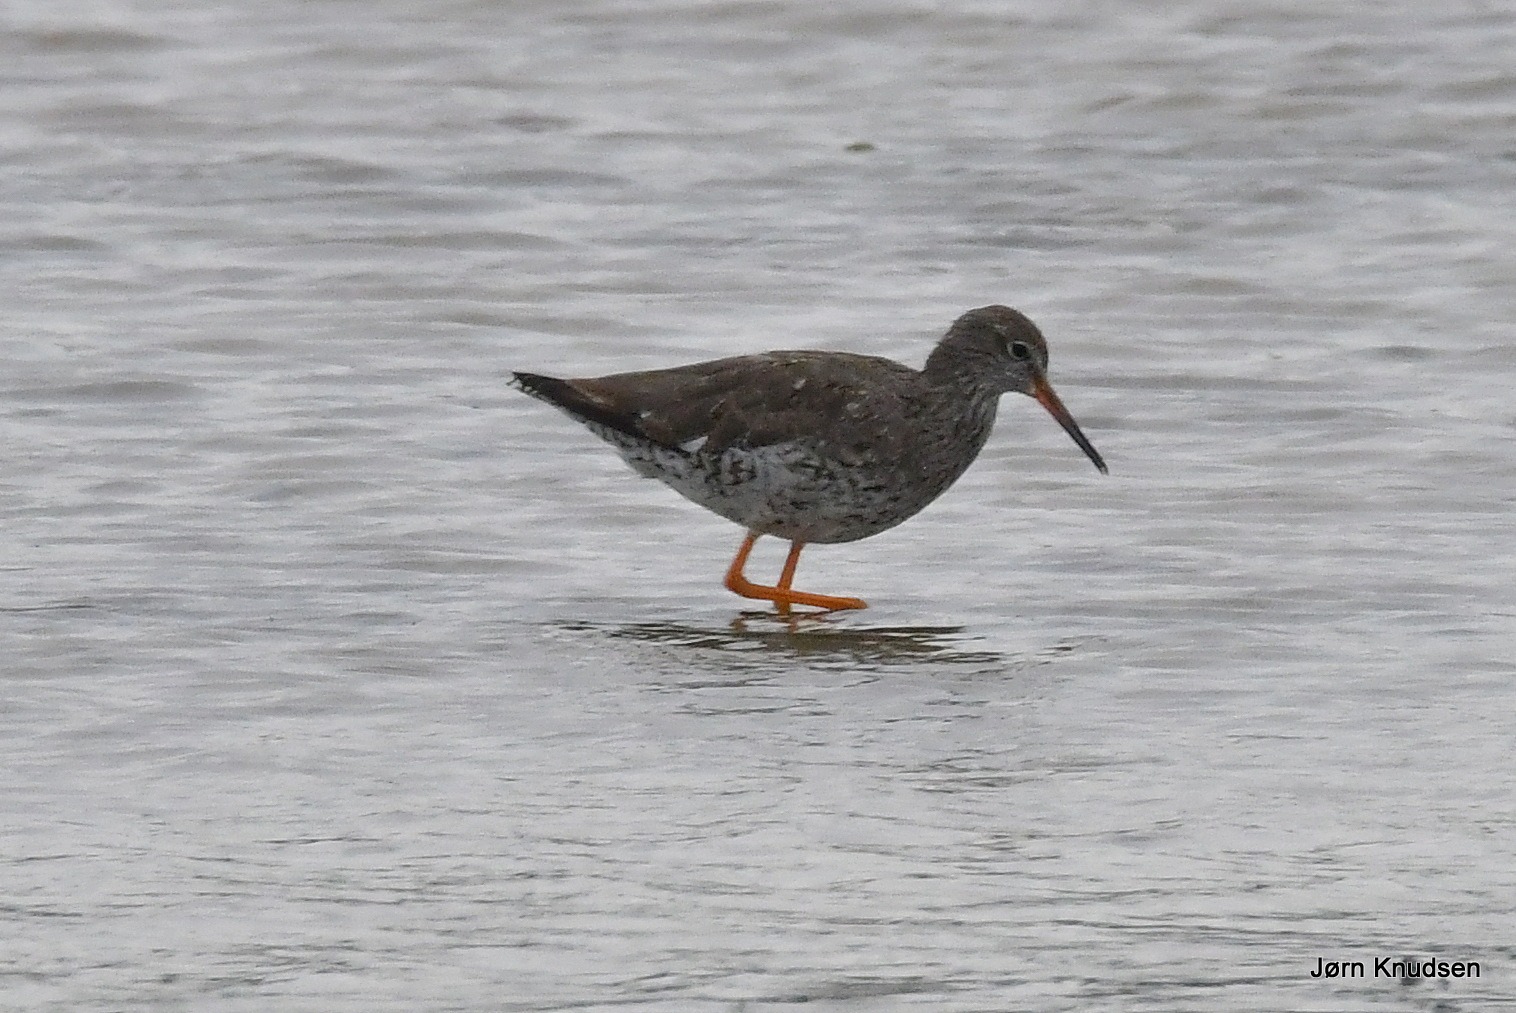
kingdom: Animalia
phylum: Chordata
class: Aves
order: Charadriiformes
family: Scolopacidae
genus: Tringa
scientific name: Tringa totanus
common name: Rødben
